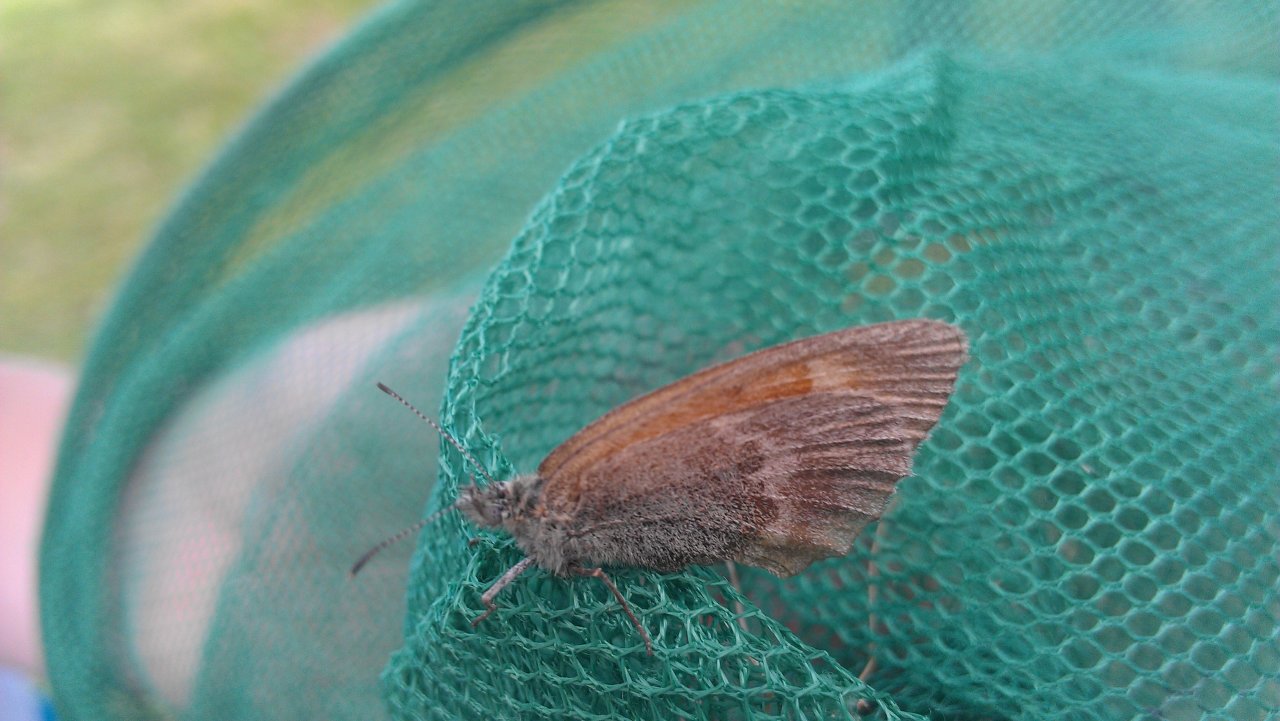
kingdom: Animalia
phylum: Arthropoda
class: Insecta
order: Lepidoptera
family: Nymphalidae
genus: Coenonympha
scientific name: Coenonympha tullia
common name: Large Heath
